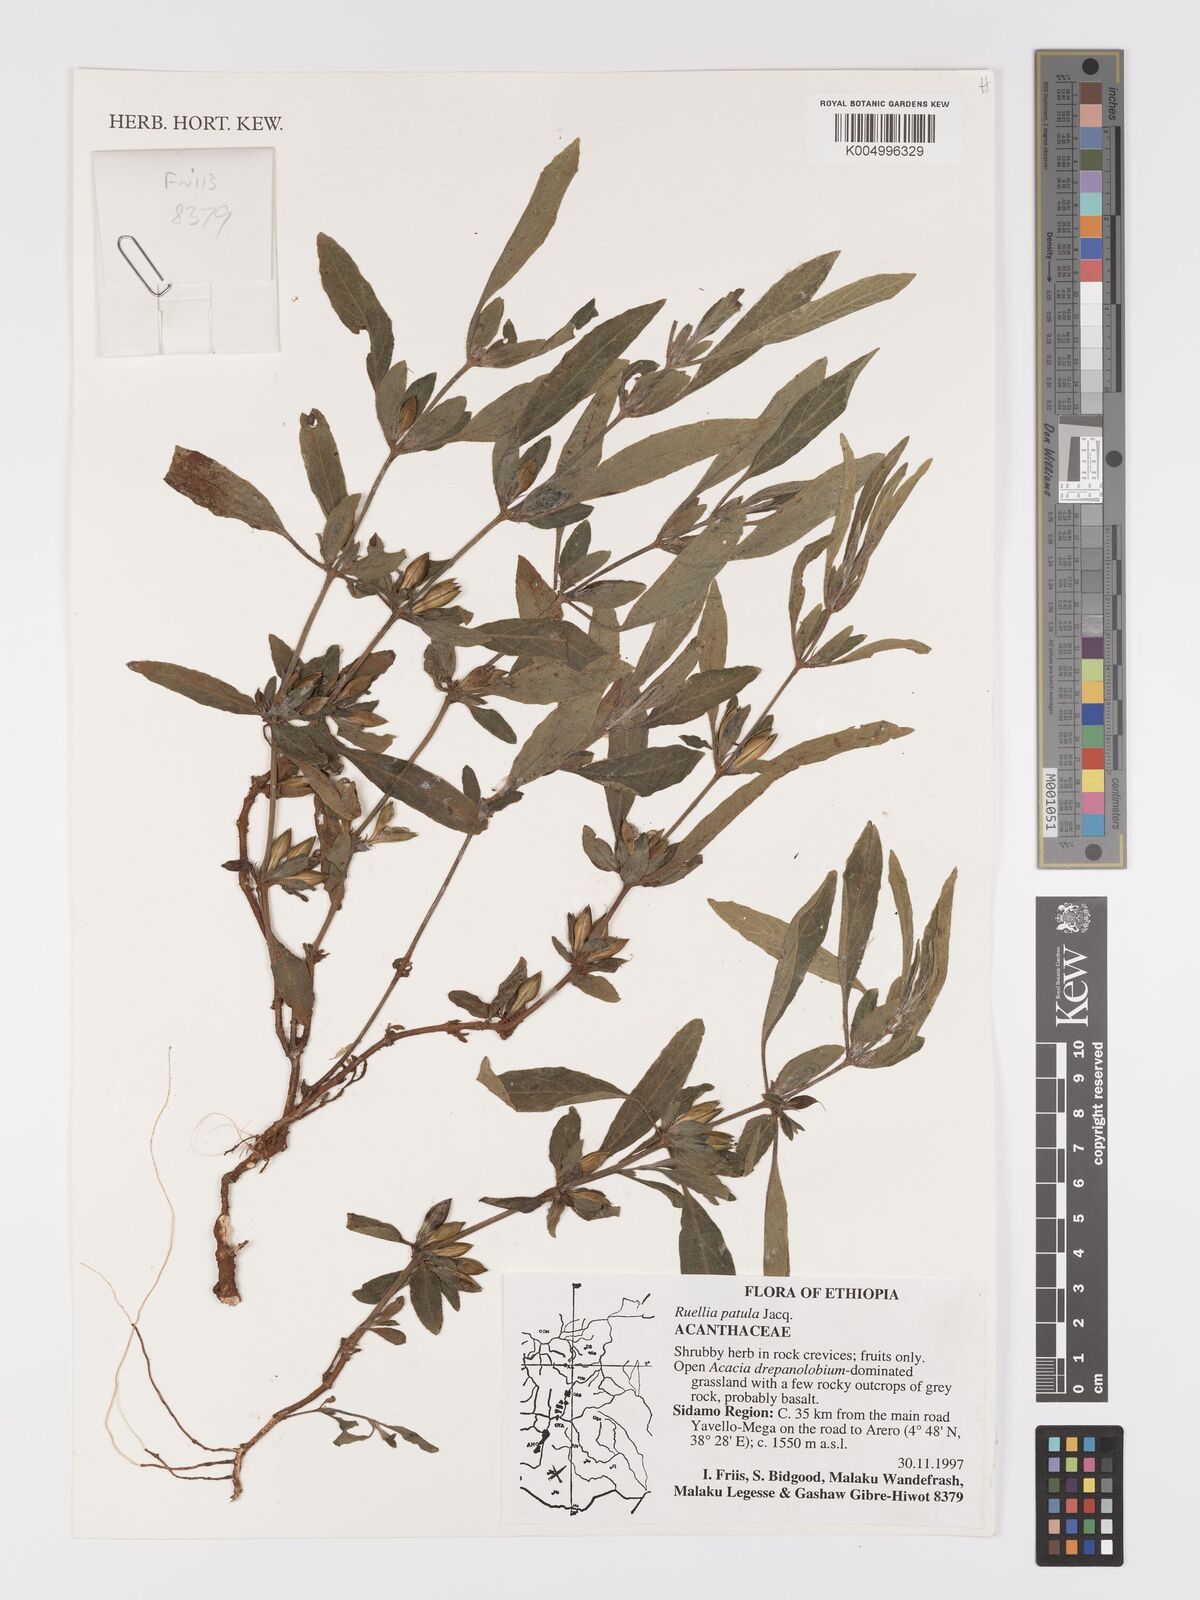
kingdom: Plantae
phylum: Tracheophyta
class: Magnoliopsida
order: Lamiales
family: Acanthaceae
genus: Ruellia
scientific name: Ruellia patula
